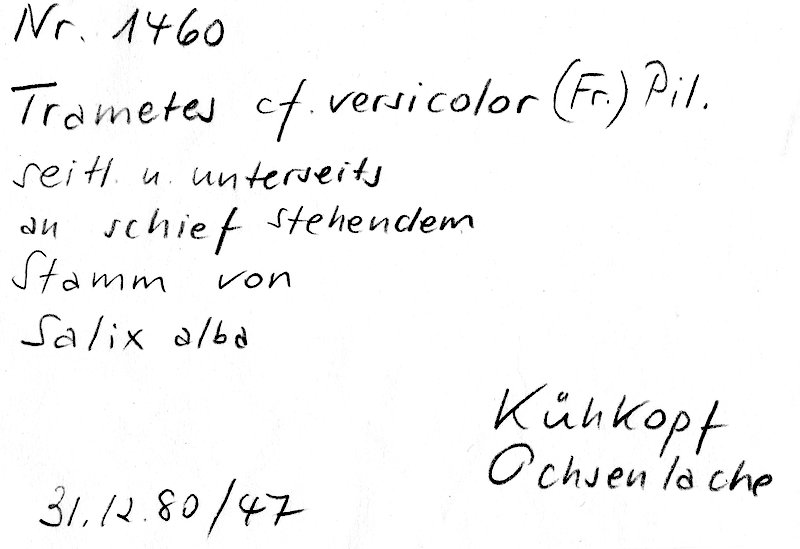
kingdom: Fungi
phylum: Basidiomycota
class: Agaricomycetes
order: Polyporales
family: Polyporaceae
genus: Trametes
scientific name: Trametes versicolor
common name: Turkeytail
